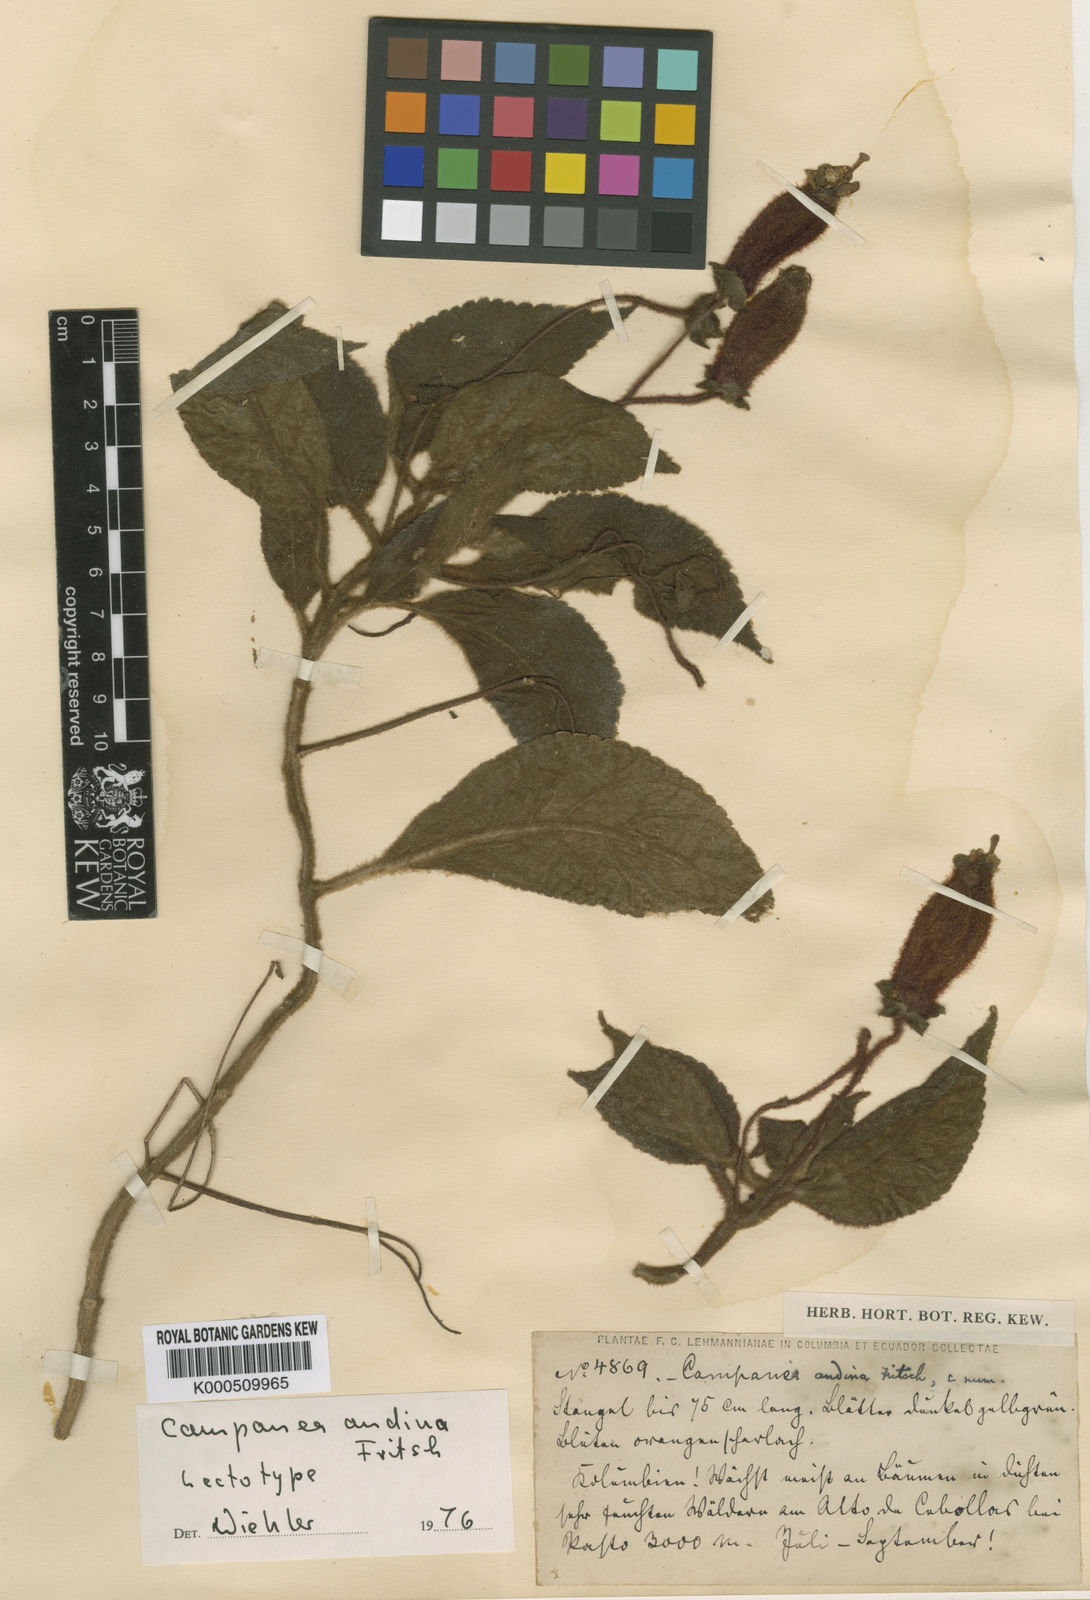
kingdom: Plantae
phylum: Tracheophyta
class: Magnoliopsida
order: Lamiales
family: Gesneriaceae
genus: Kohleria
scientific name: Kohleria
